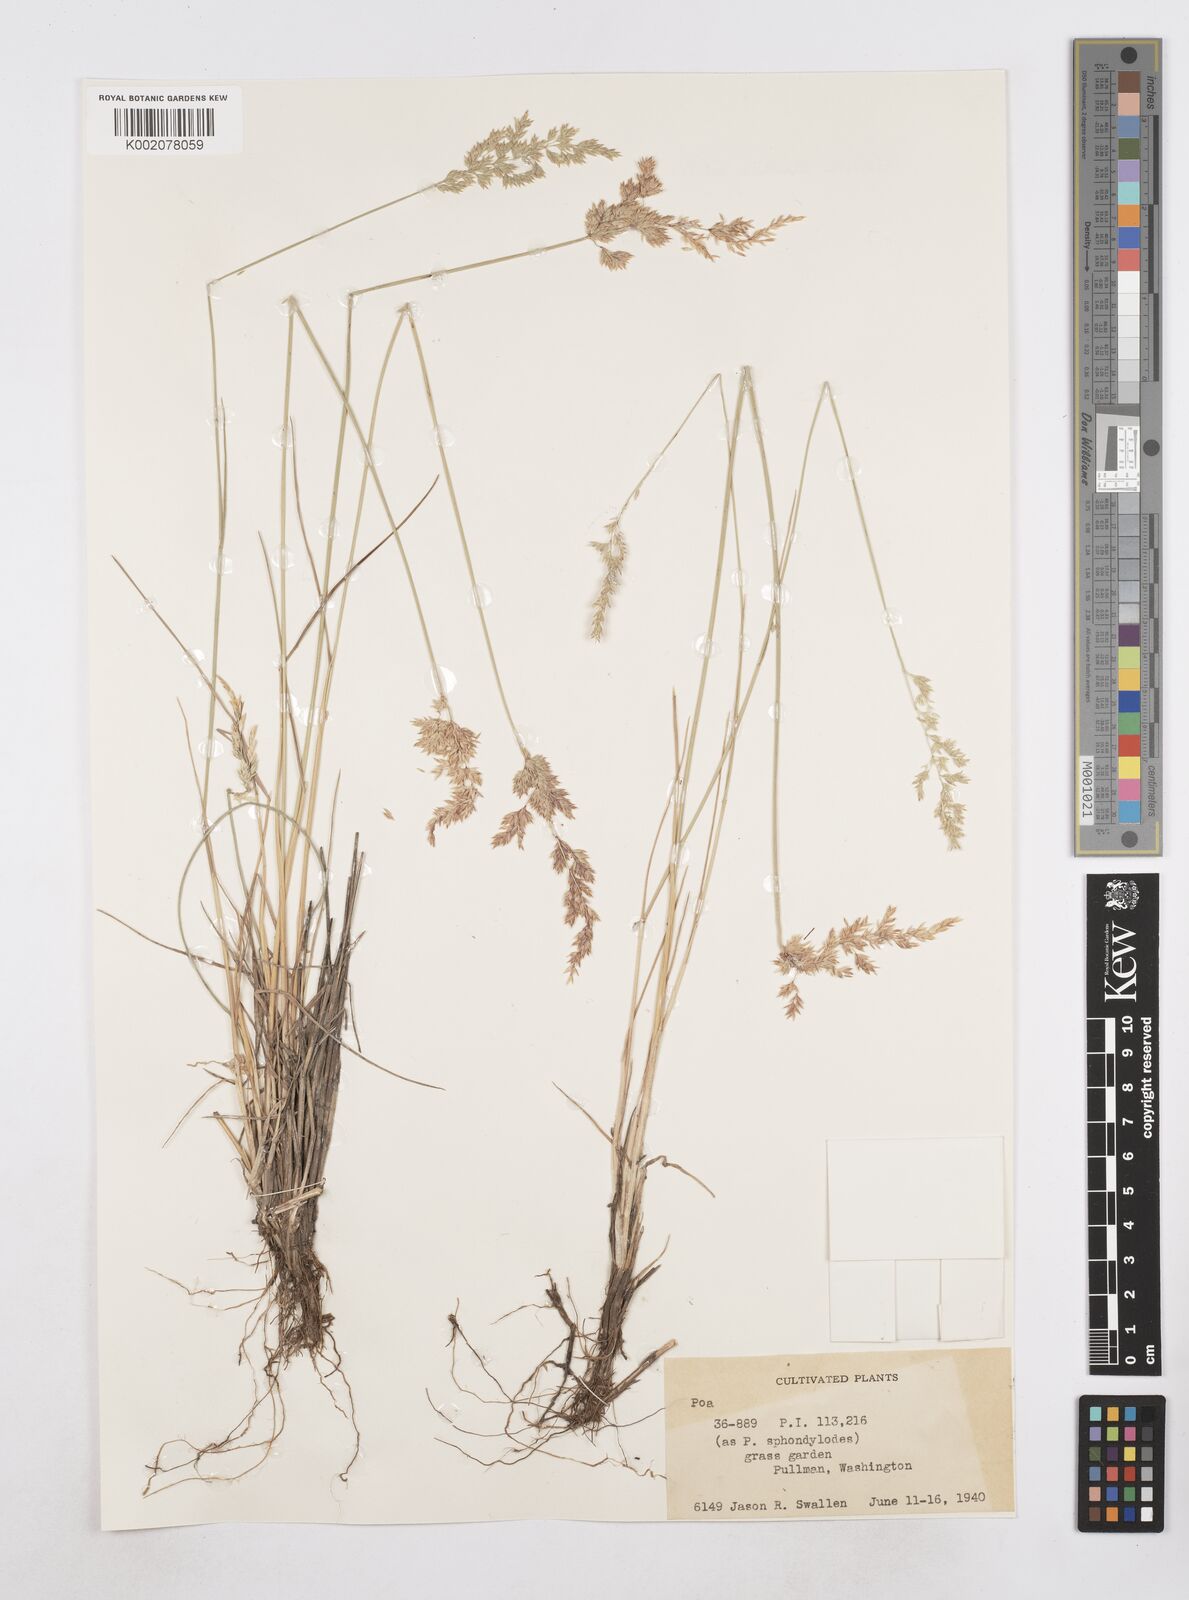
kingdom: Plantae
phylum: Tracheophyta
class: Liliopsida
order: Poales
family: Poaceae
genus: Poa
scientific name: Poa
